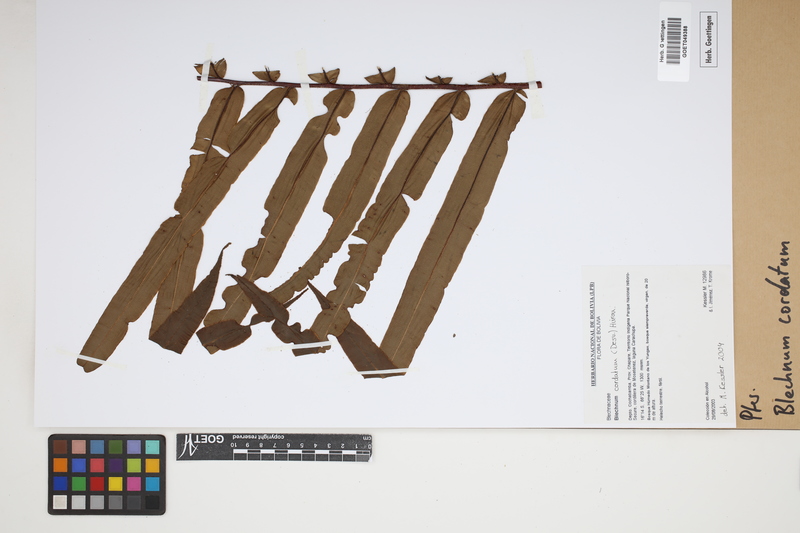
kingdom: Plantae
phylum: Tracheophyta
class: Polypodiopsida
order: Polypodiales
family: Blechnaceae
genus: Parablechnum
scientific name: Parablechnum cordatum
